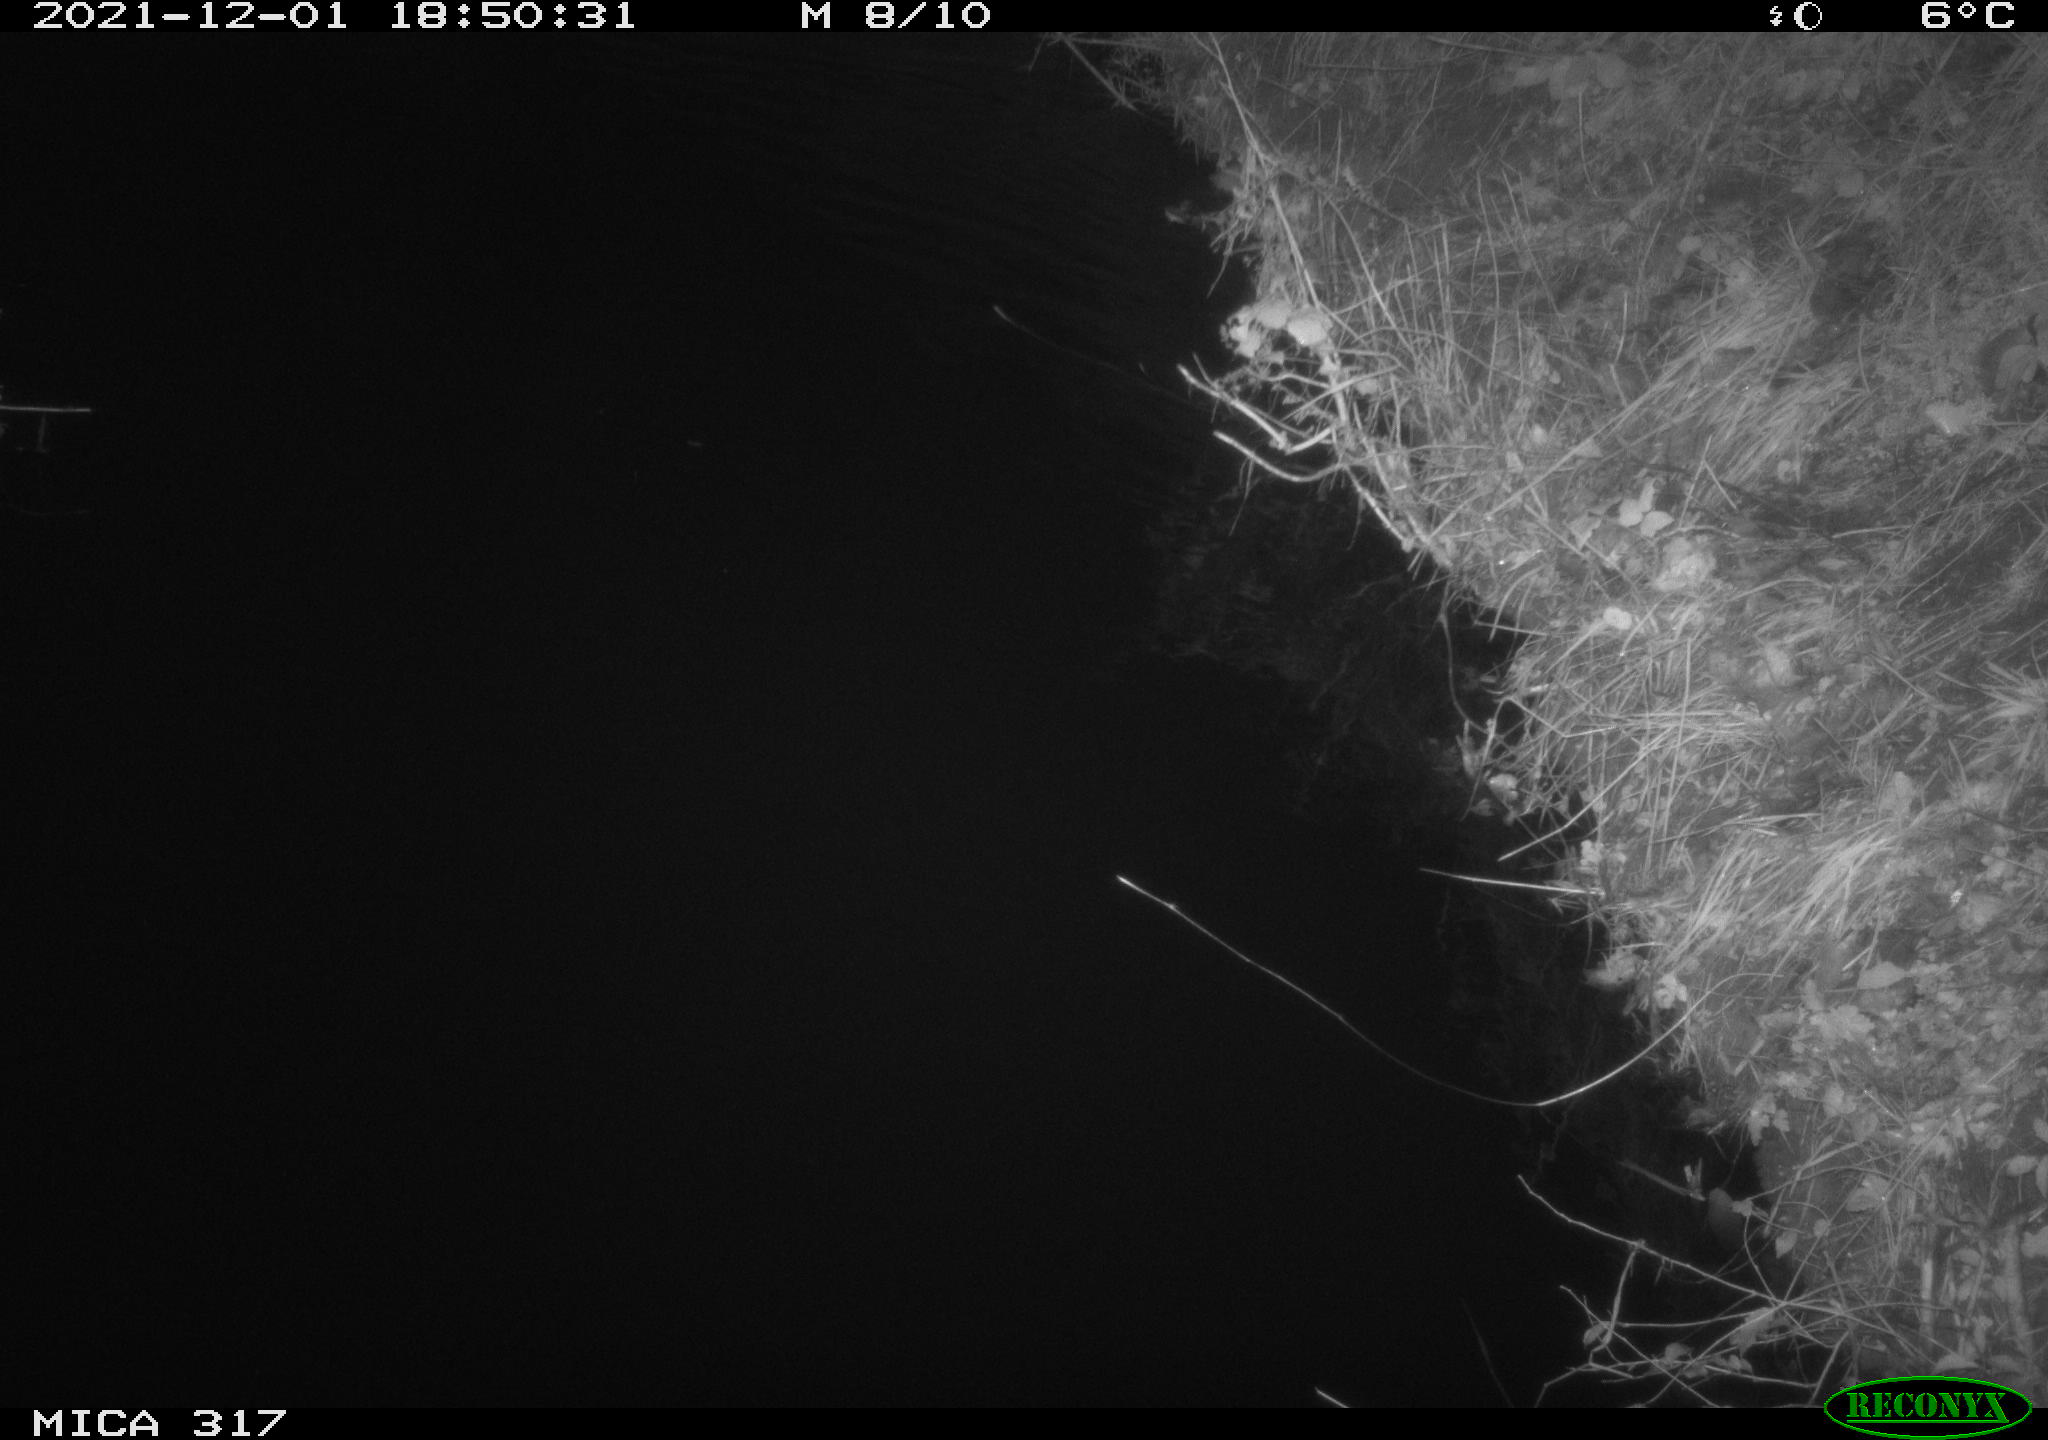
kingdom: Animalia
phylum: Chordata
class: Mammalia
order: Rodentia
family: Muridae
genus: Rattus
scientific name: Rattus norvegicus
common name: Brown rat
